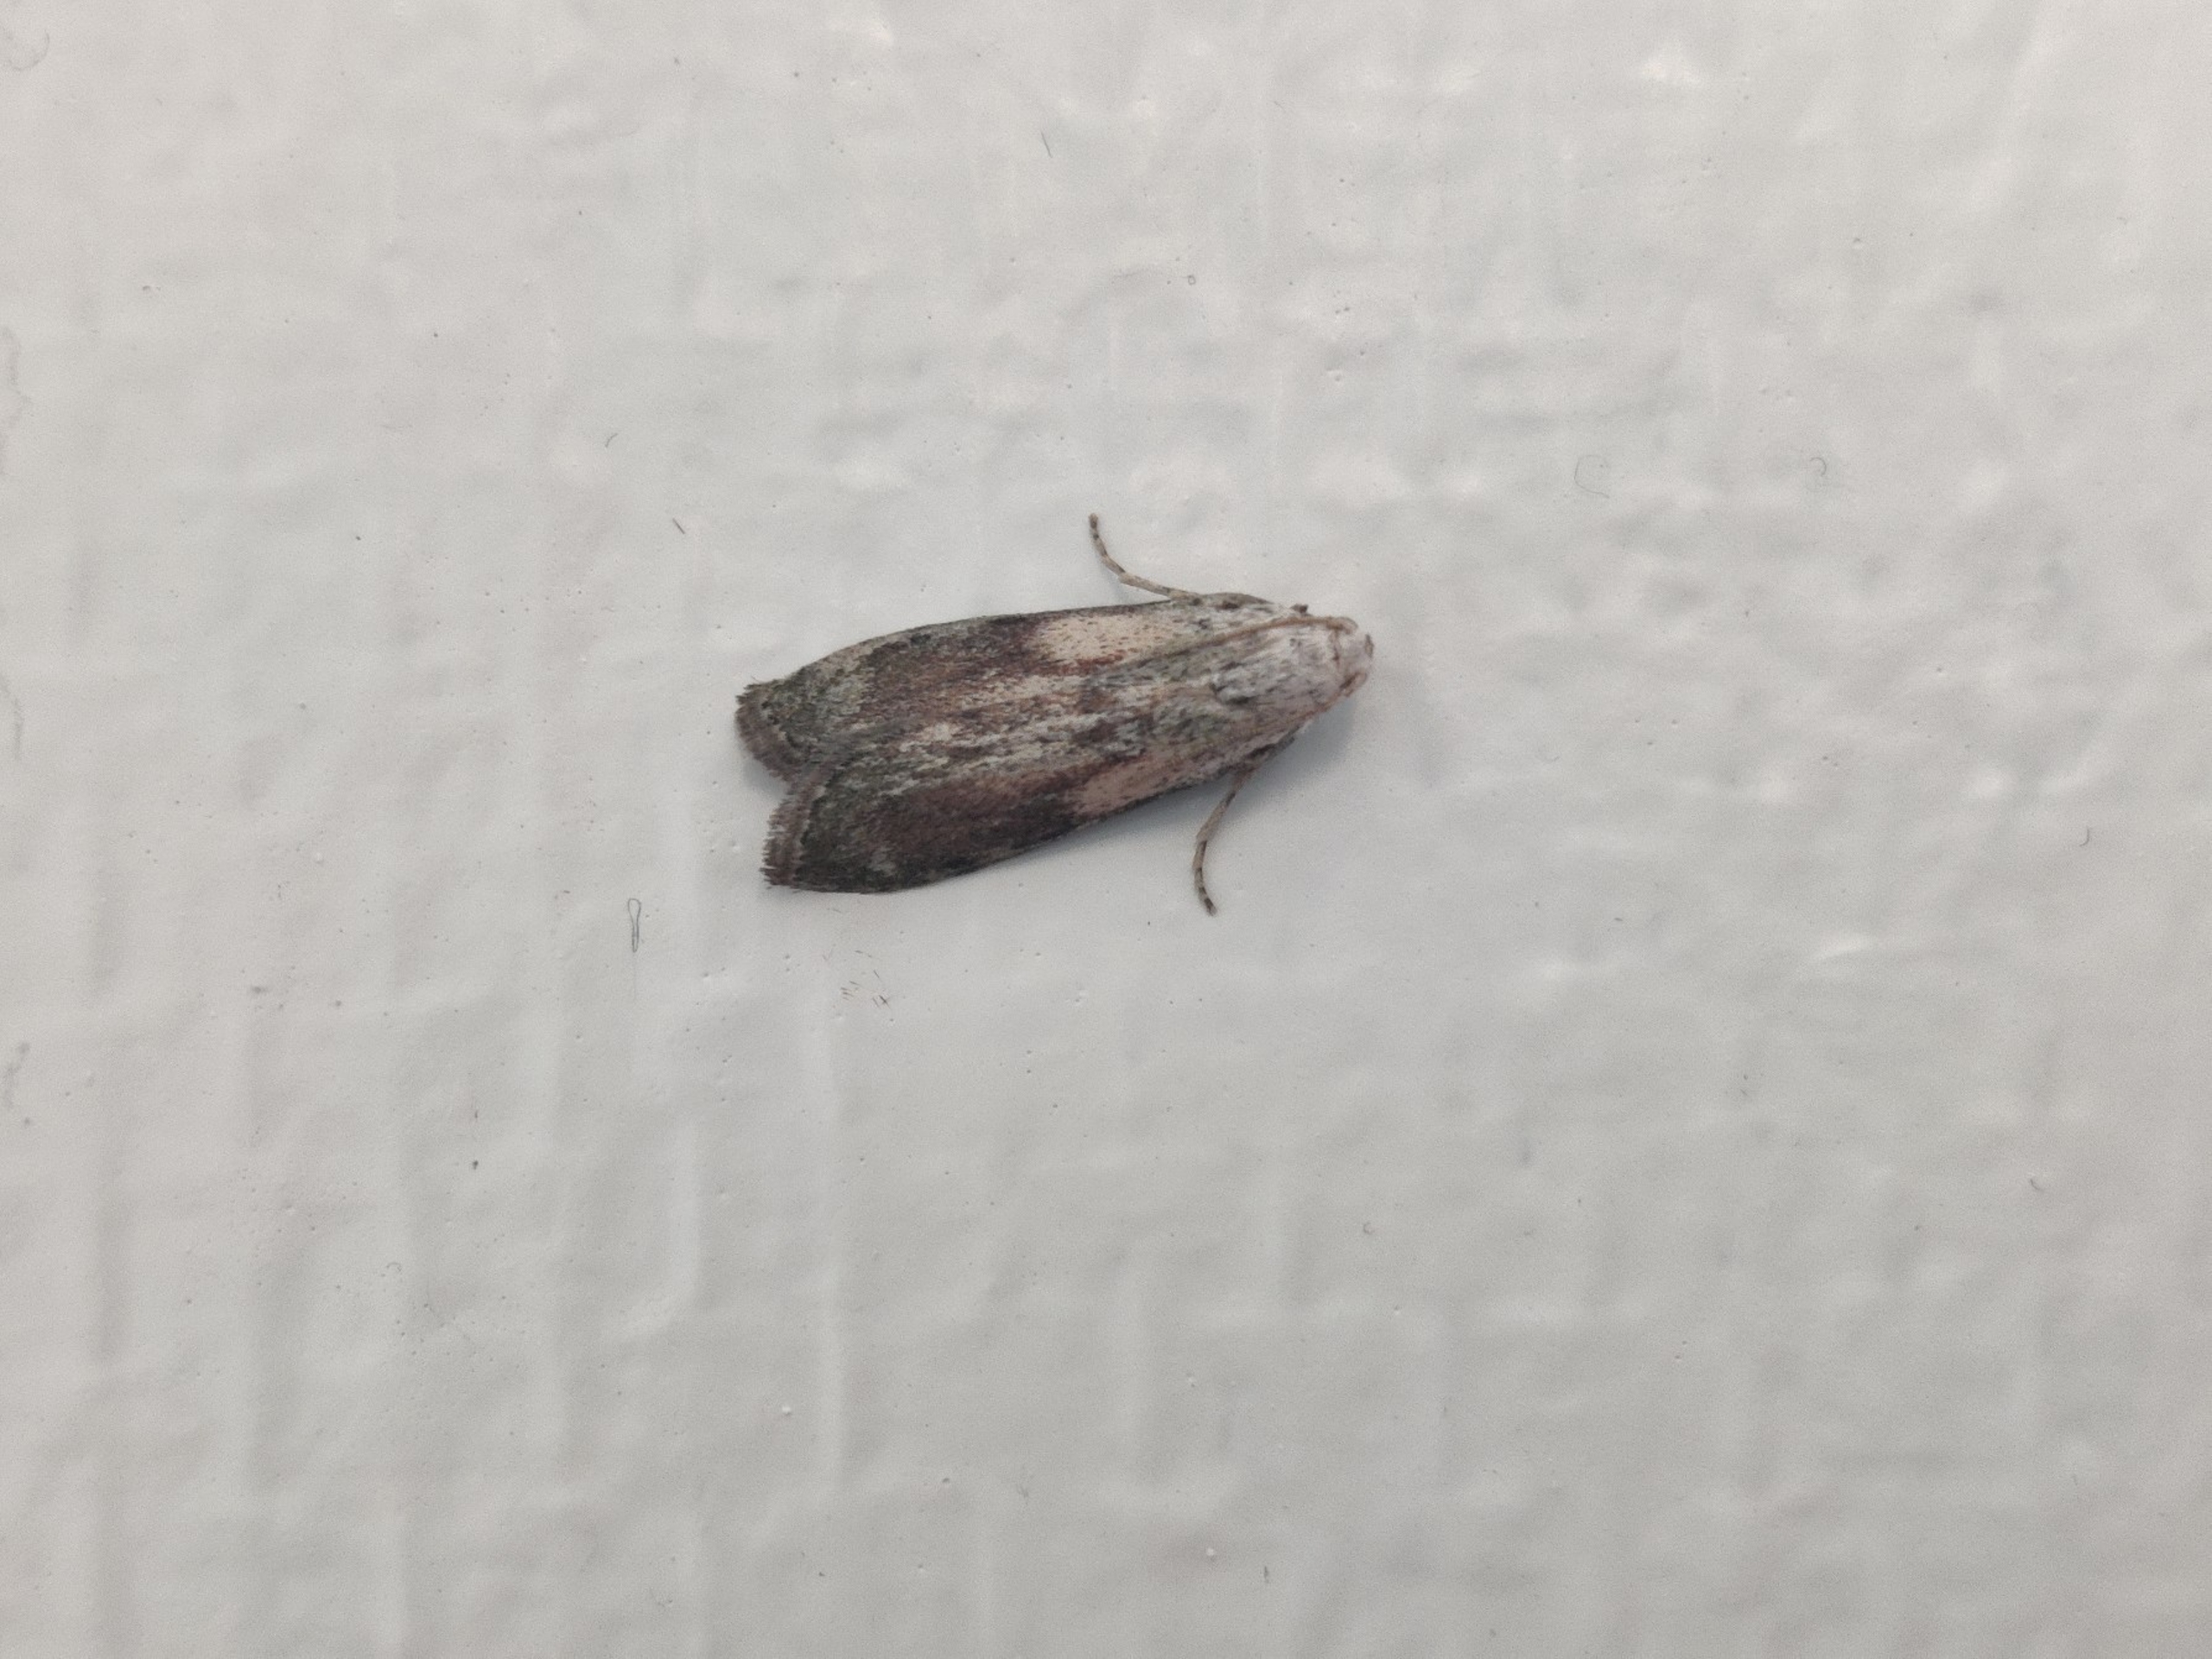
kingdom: Animalia
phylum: Arthropoda
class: Insecta
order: Lepidoptera
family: Pyralidae
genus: Aphomia
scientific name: Aphomia sociella
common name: Humlevoksmøl
